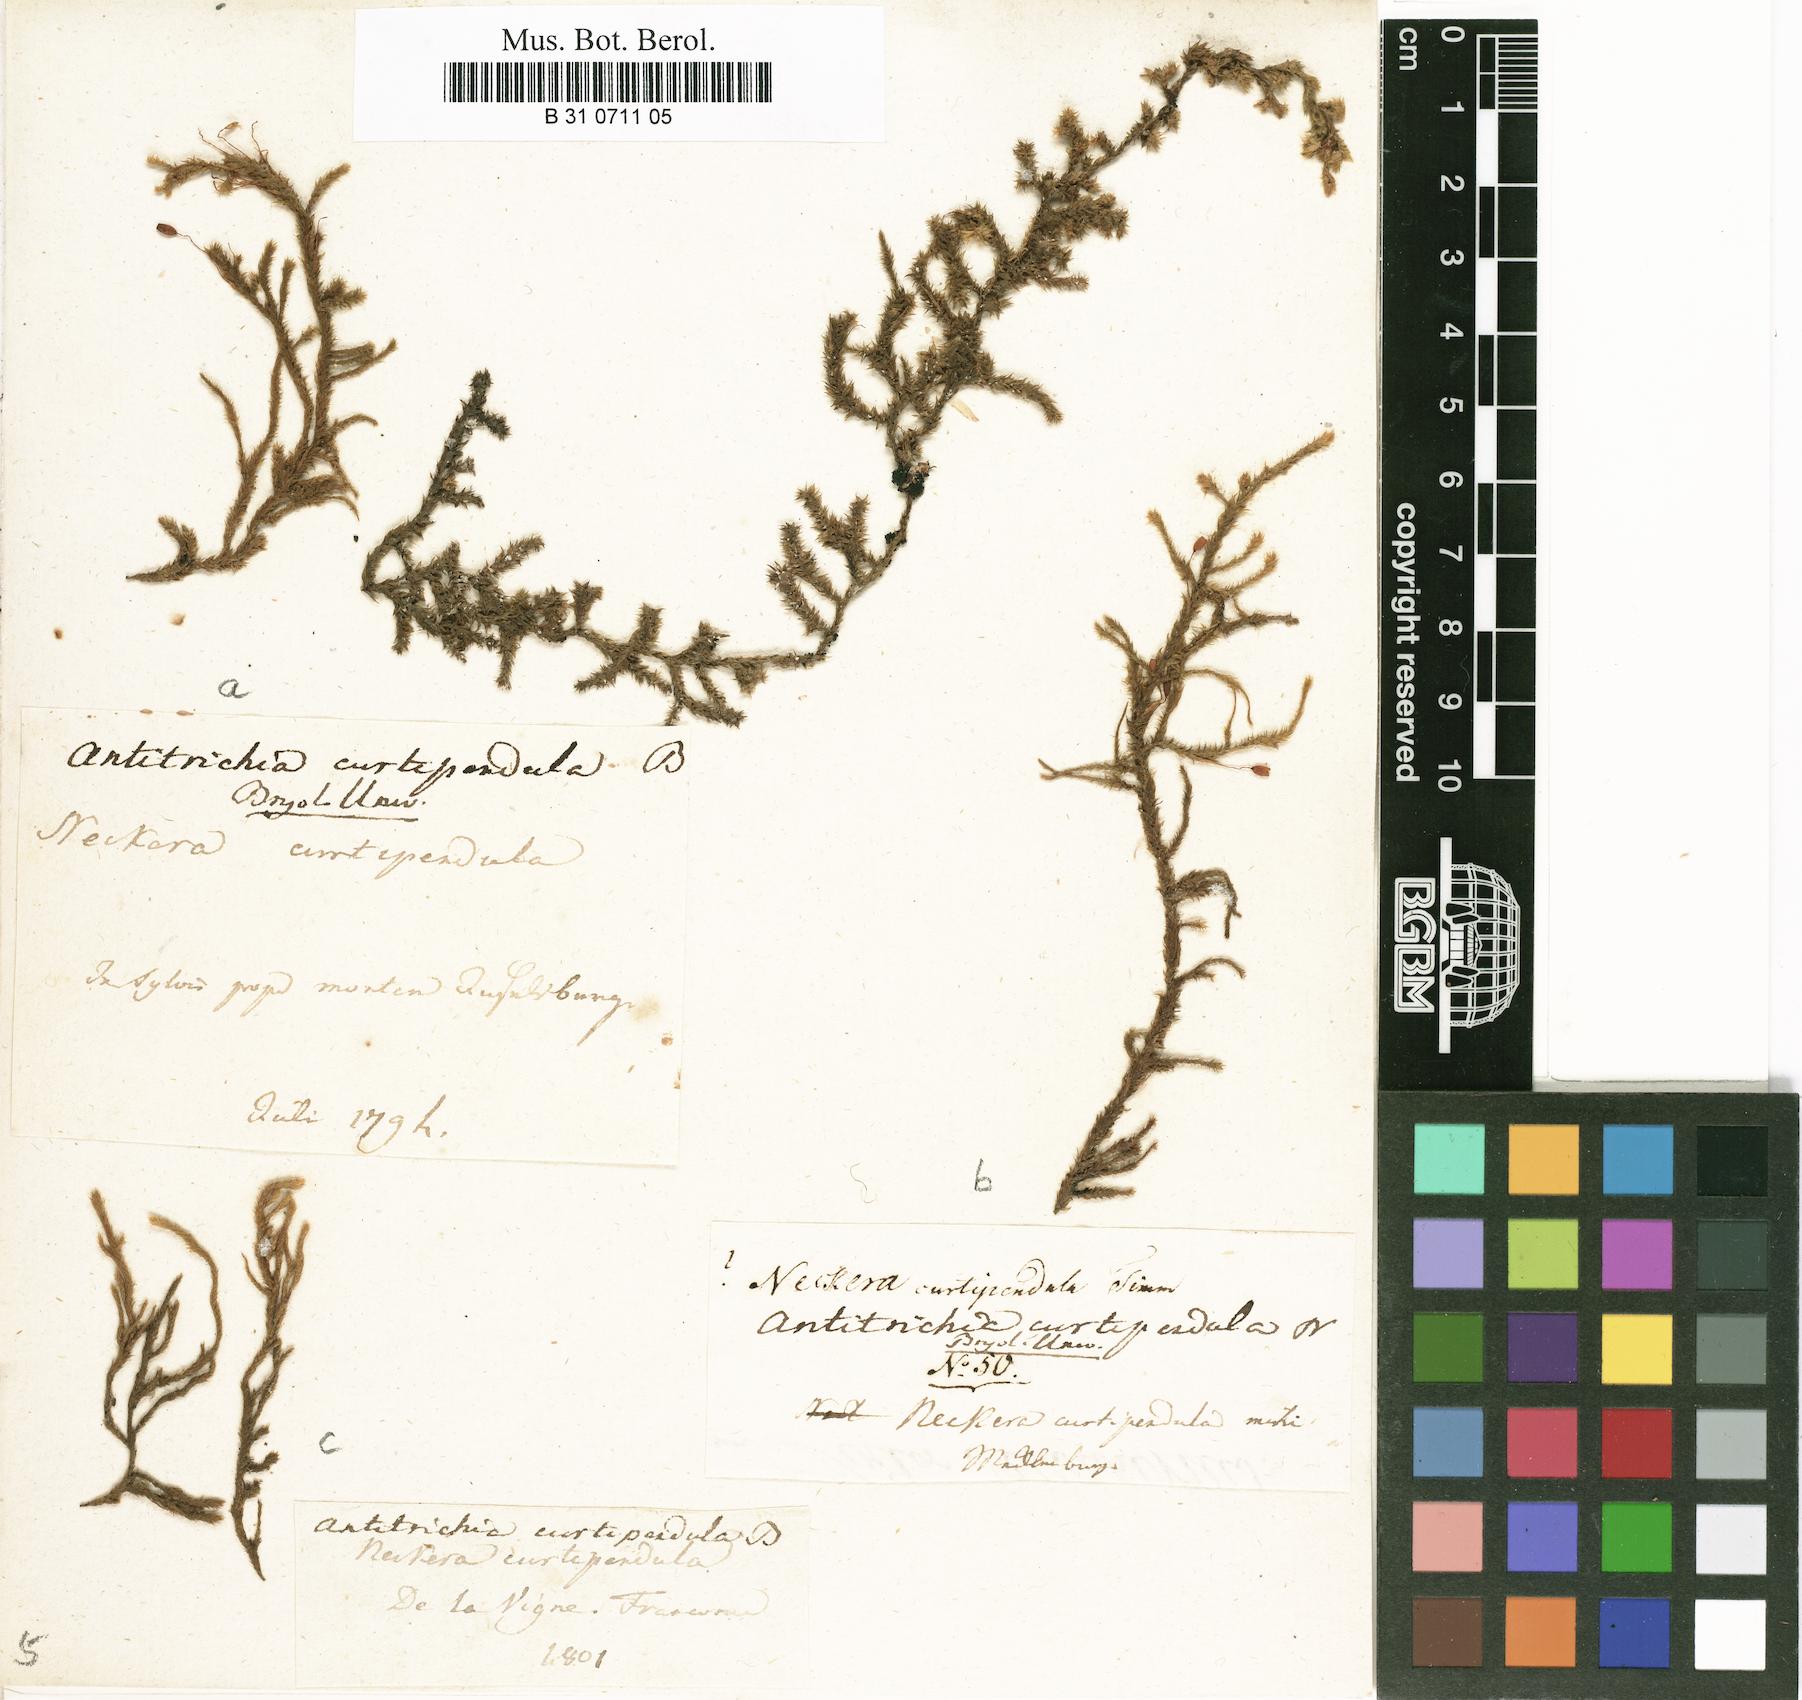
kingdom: Plantae
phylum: Bryophyta
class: Bryopsida
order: Hypnales
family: Antitrichiaceae
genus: Antitrichia
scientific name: Antitrichia curtipendula
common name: Pendulous wing-moss
